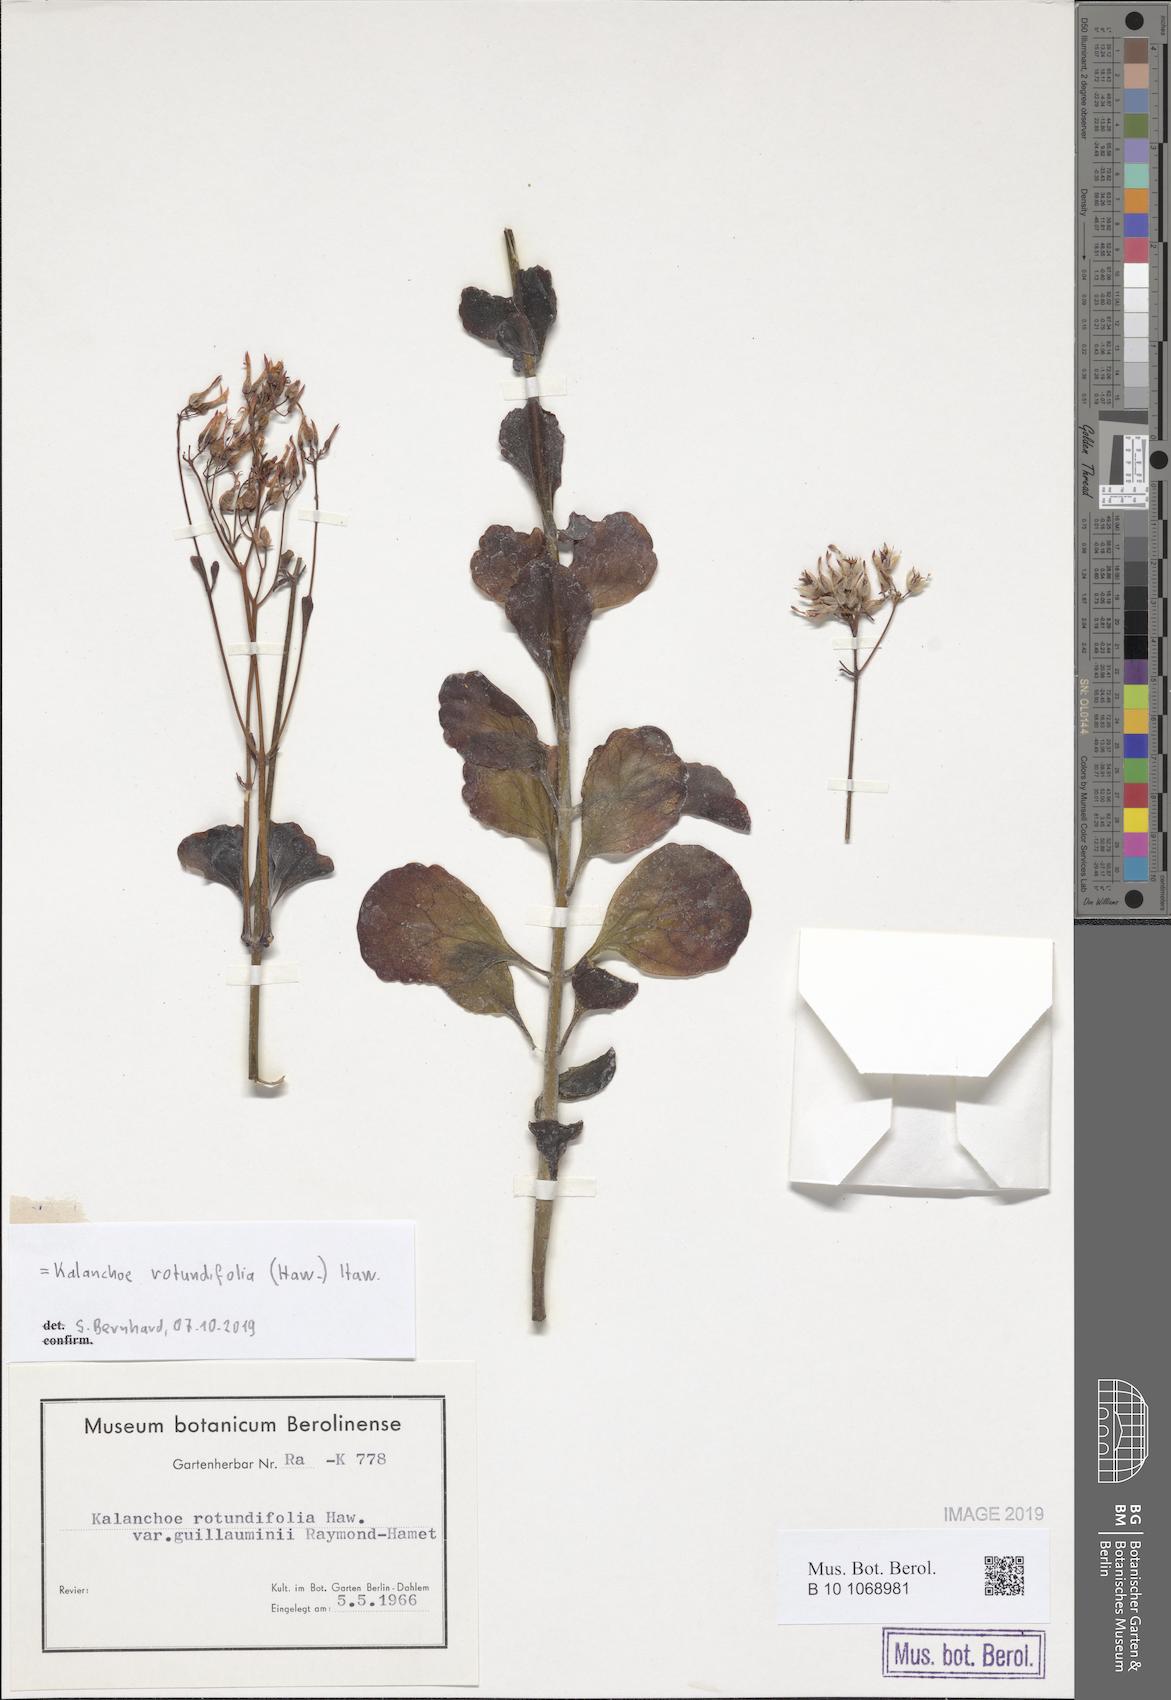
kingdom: Plantae
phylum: Tracheophyta
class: Magnoliopsida
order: Saxifragales
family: Crassulaceae
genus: Kalanchoe
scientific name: Kalanchoe rotundifolia
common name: Common kalanchoe
